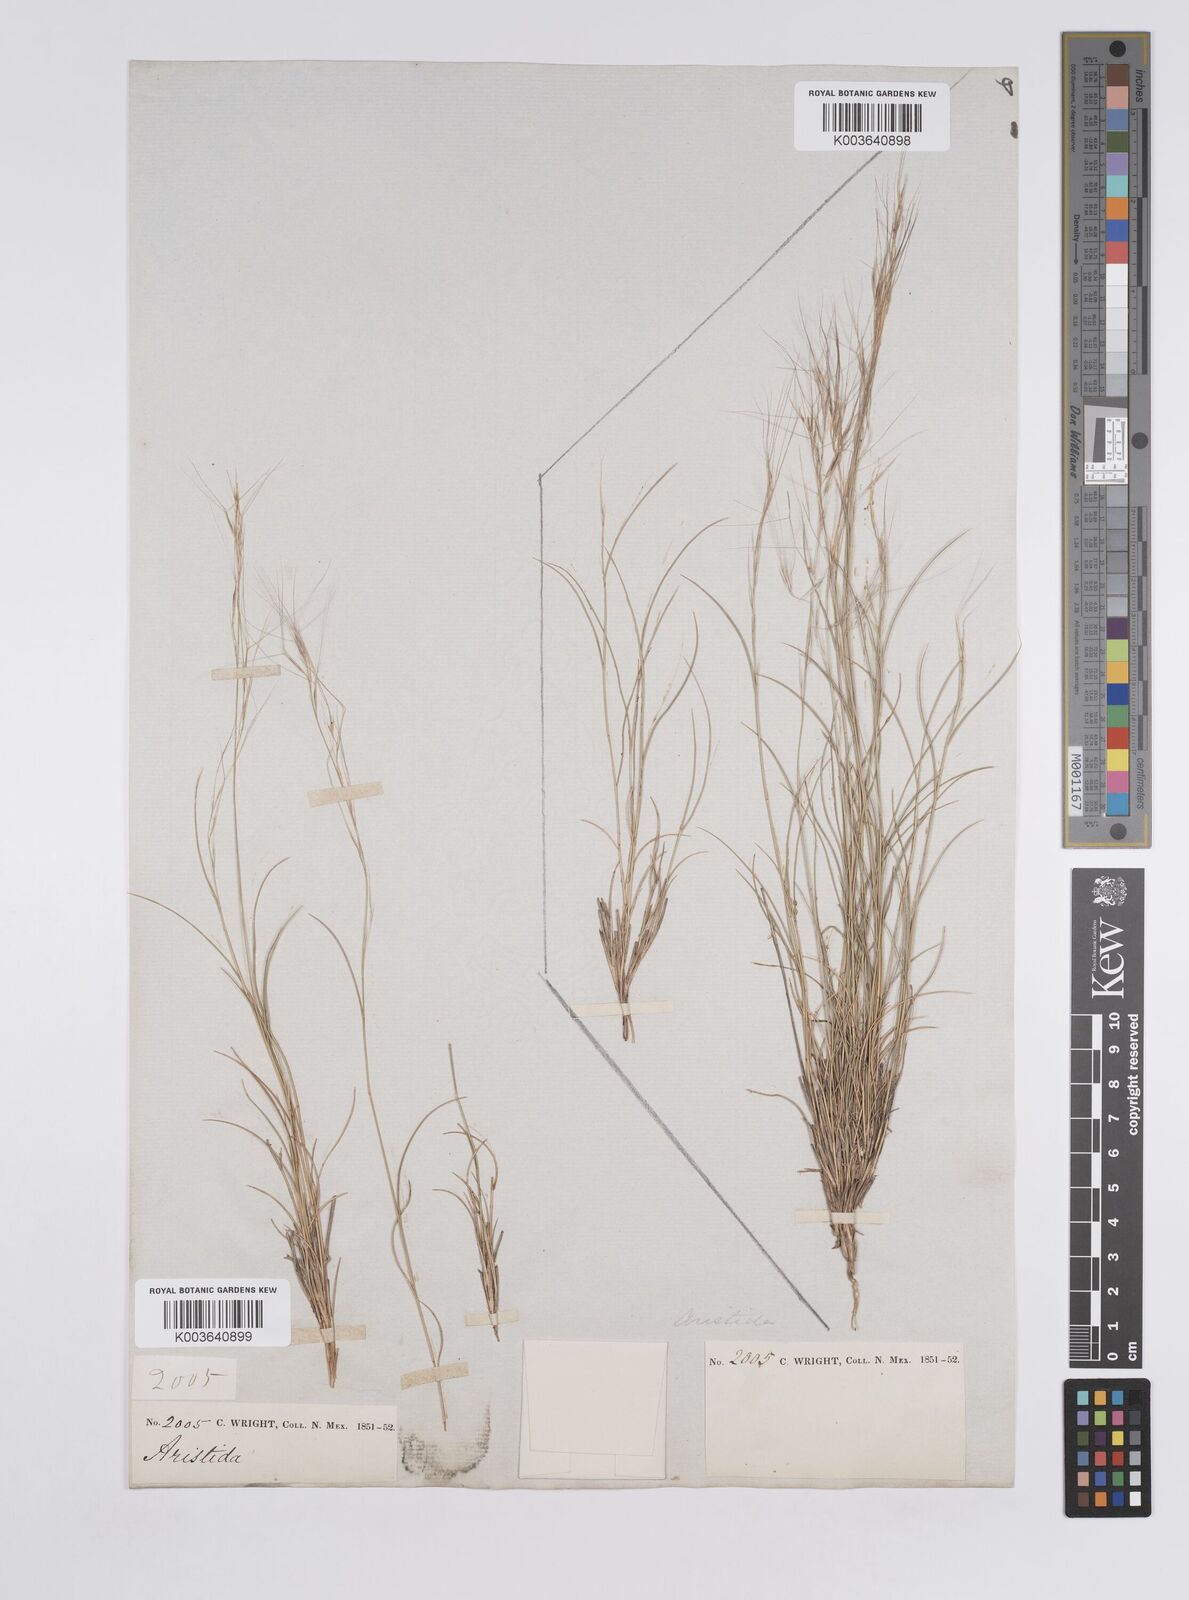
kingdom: Plantae
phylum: Tracheophyta
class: Liliopsida
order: Poales
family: Poaceae
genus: Aristida
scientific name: Aristida purpurea
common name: Purple threeawn
